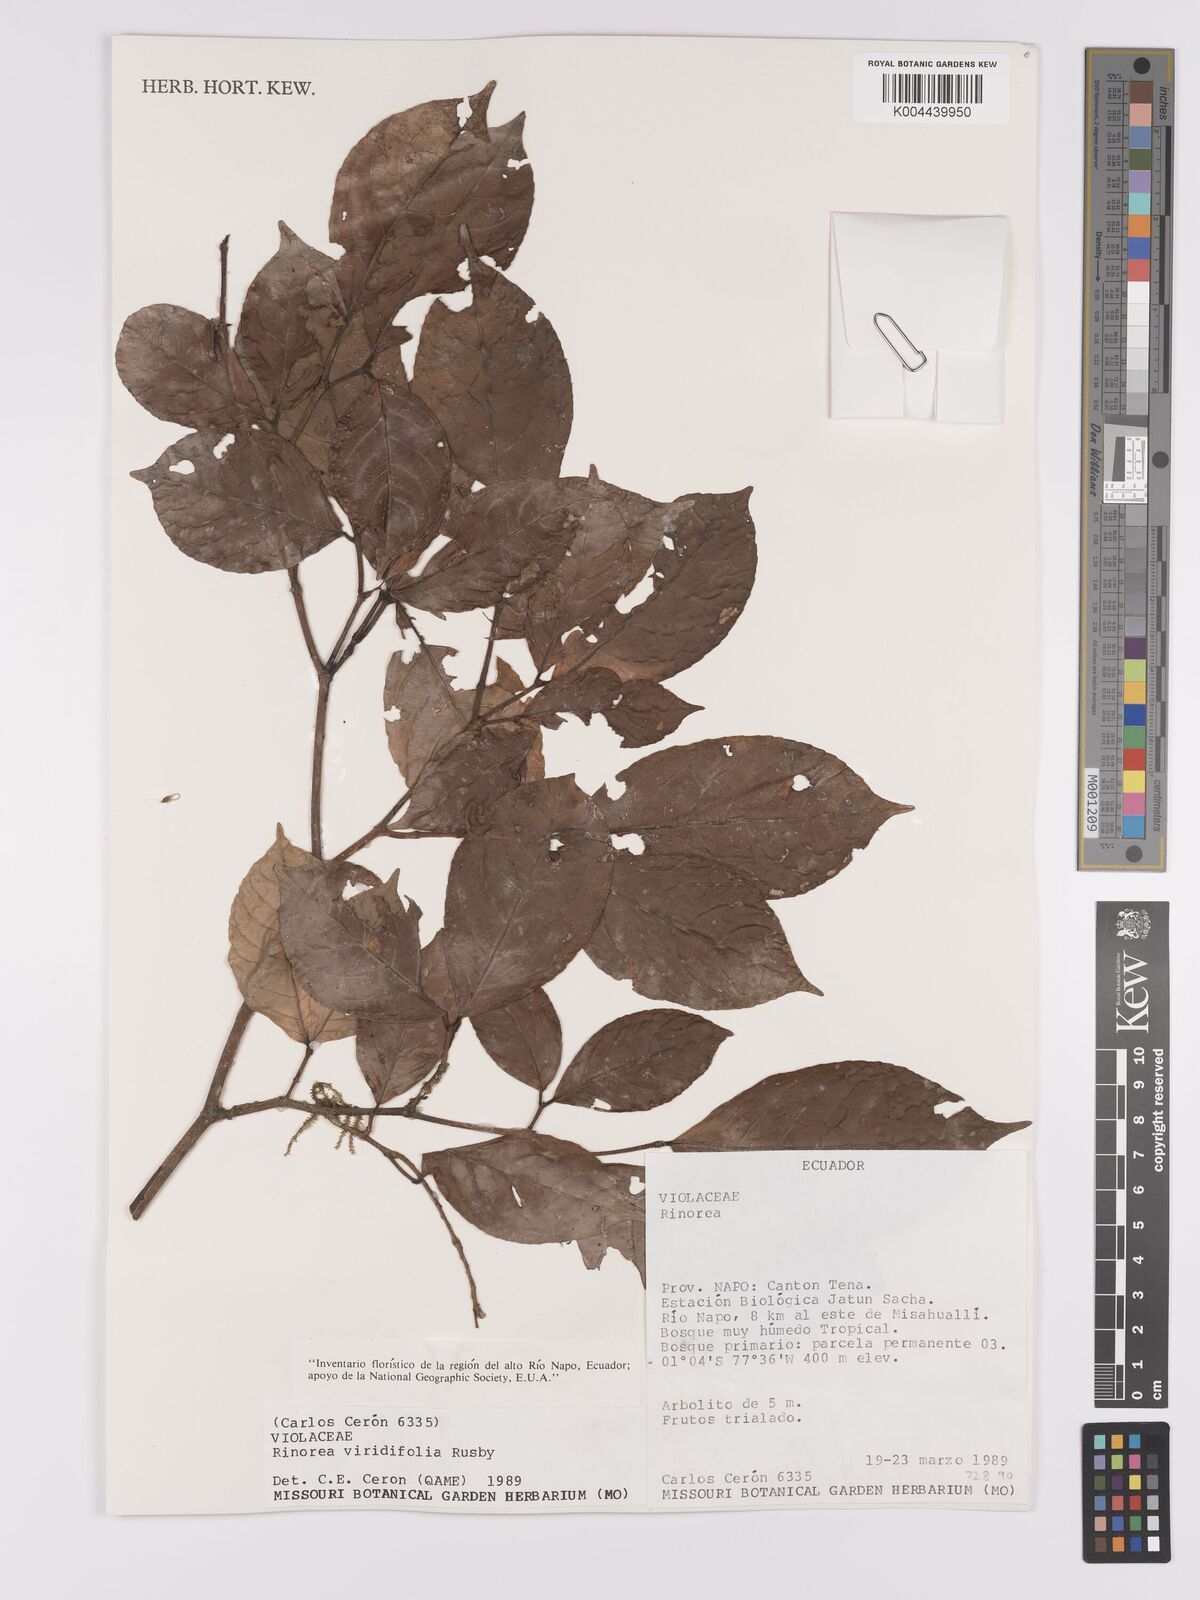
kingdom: Plantae
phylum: Tracheophyta
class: Magnoliopsida
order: Malpighiales
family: Violaceae
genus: Rinorea
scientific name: Rinorea viridifolia
